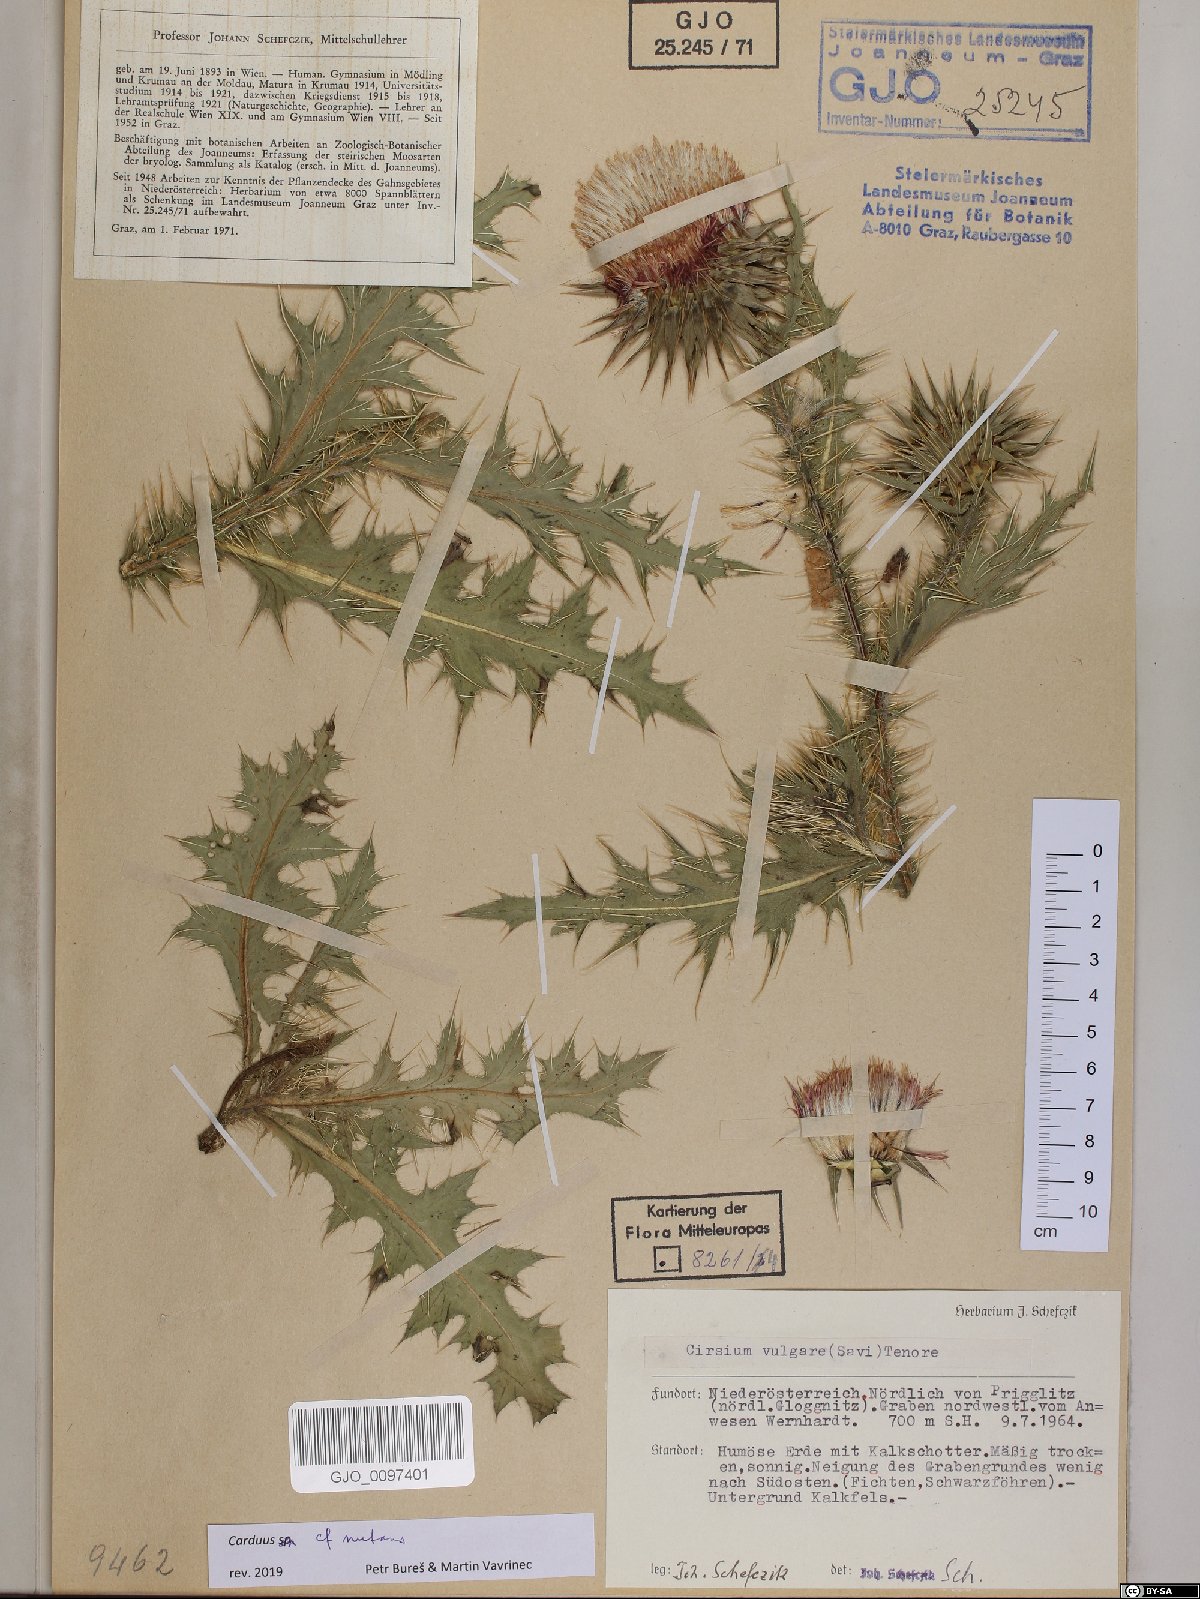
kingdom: Plantae
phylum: Tracheophyta
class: Magnoliopsida
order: Asterales
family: Asteraceae
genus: Carduus
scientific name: Carduus nutans
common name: Musk thistle
